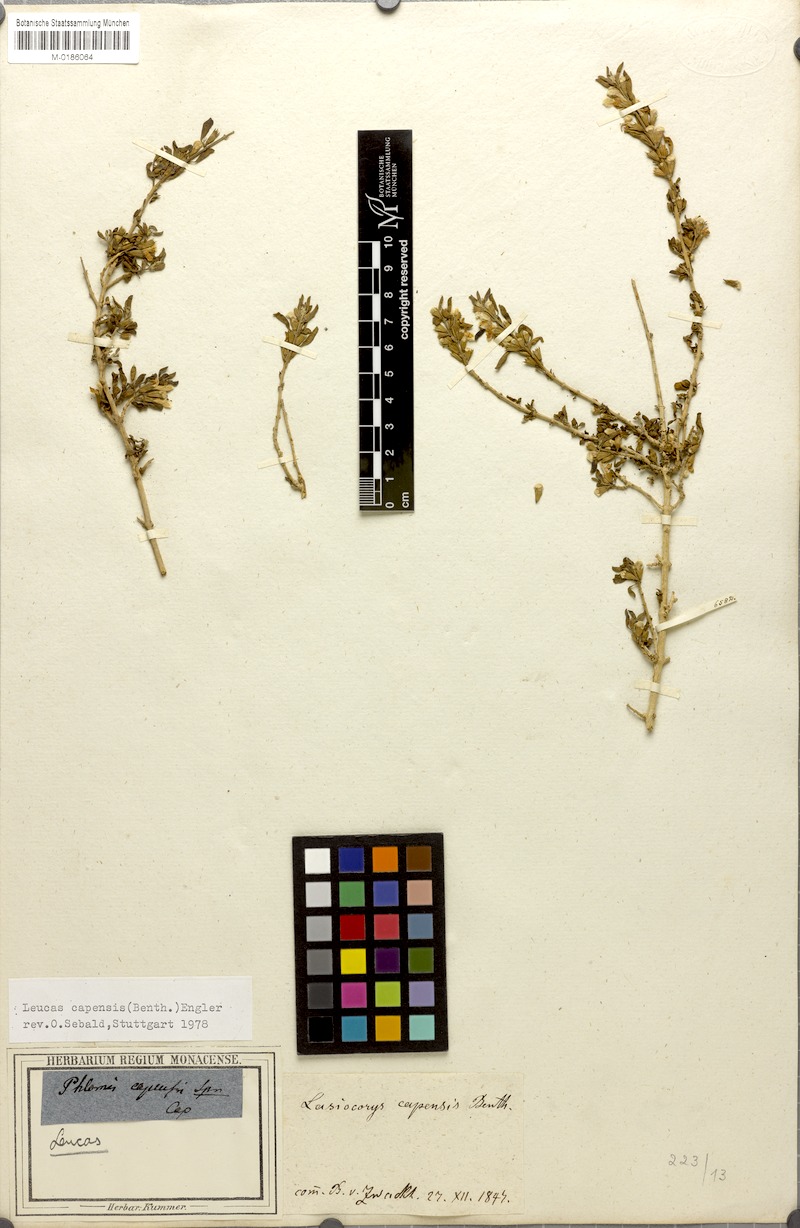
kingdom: Plantae
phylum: Tracheophyta
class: Magnoliopsida
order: Lamiales
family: Lamiaceae
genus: Leucas
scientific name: Leucas capensis
